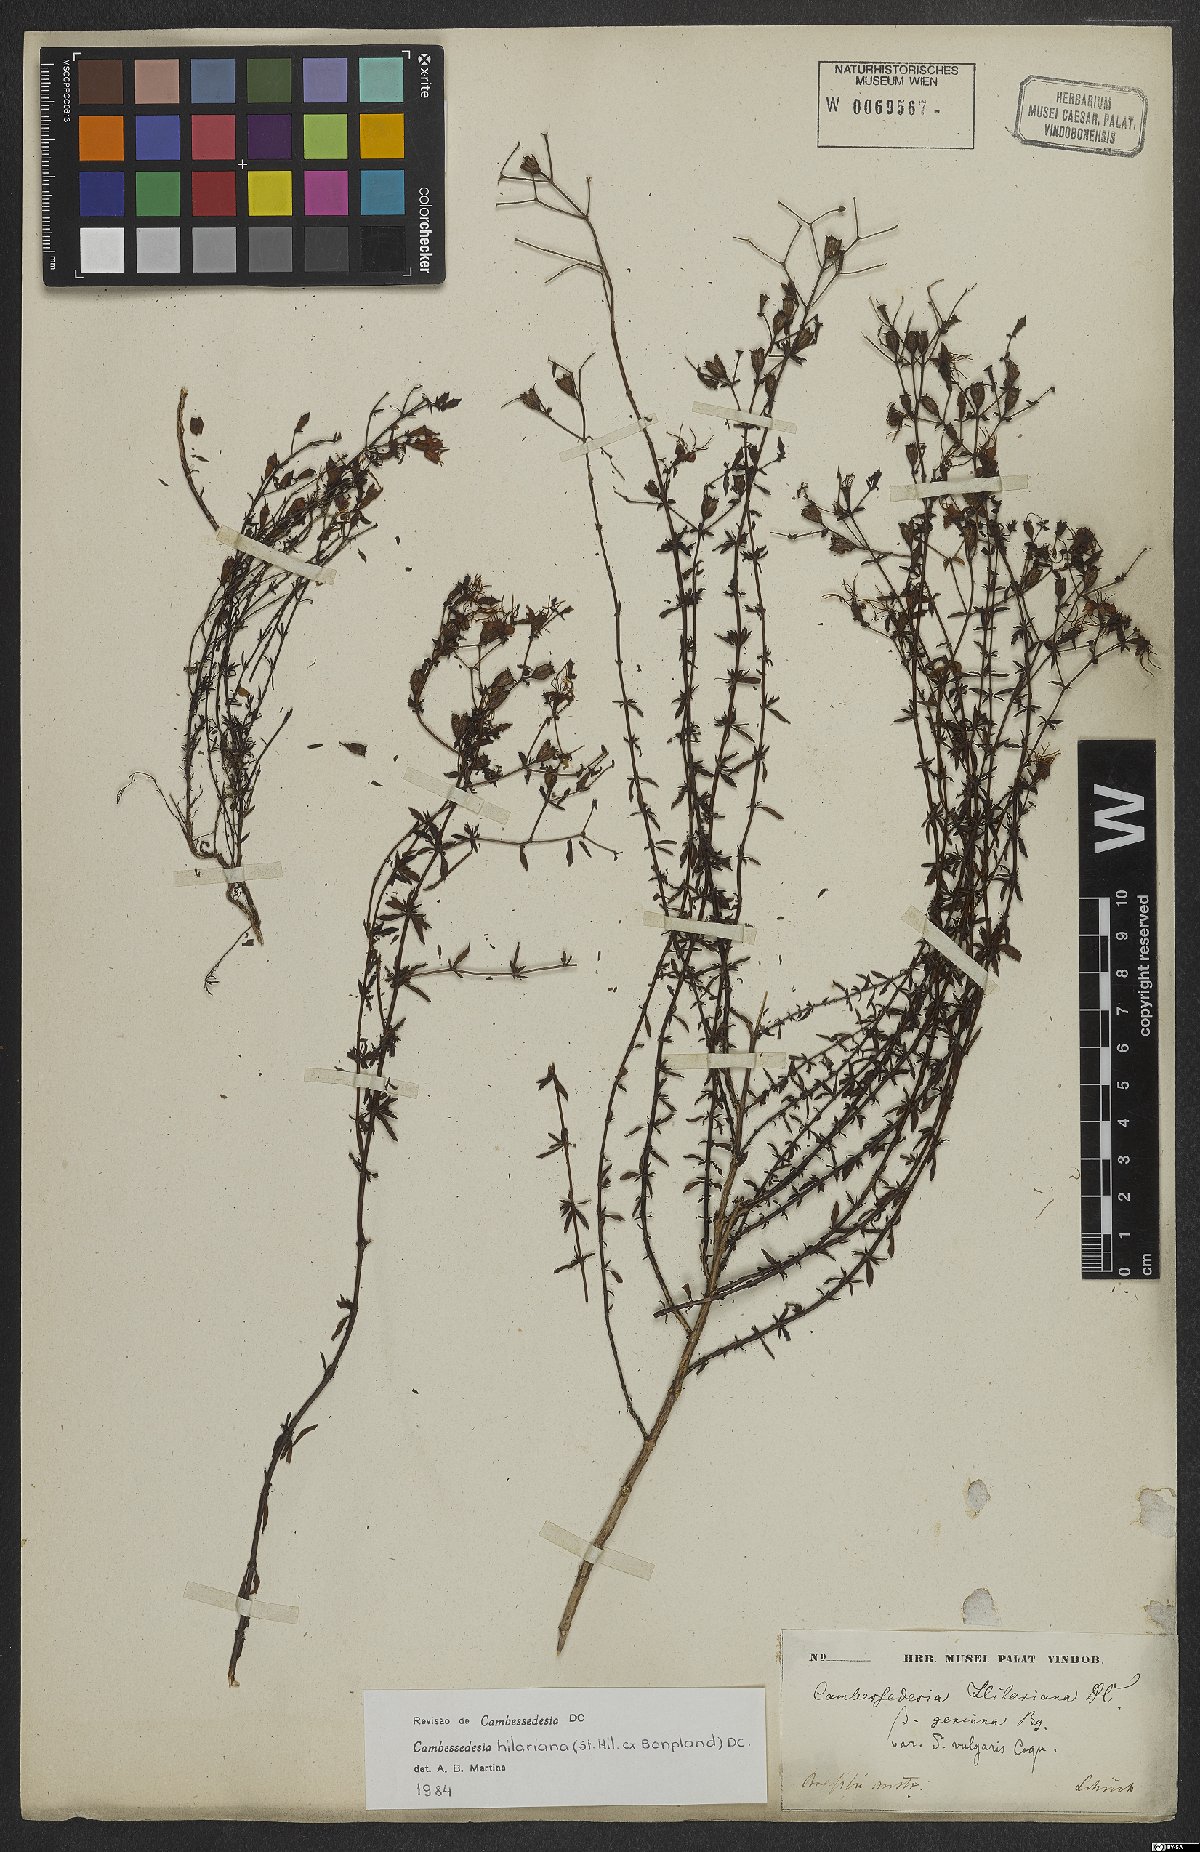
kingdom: Plantae
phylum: Tracheophyta
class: Magnoliopsida
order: Myrtales
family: Melastomataceae
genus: Cambessedesia
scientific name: Cambessedesia hilariana
